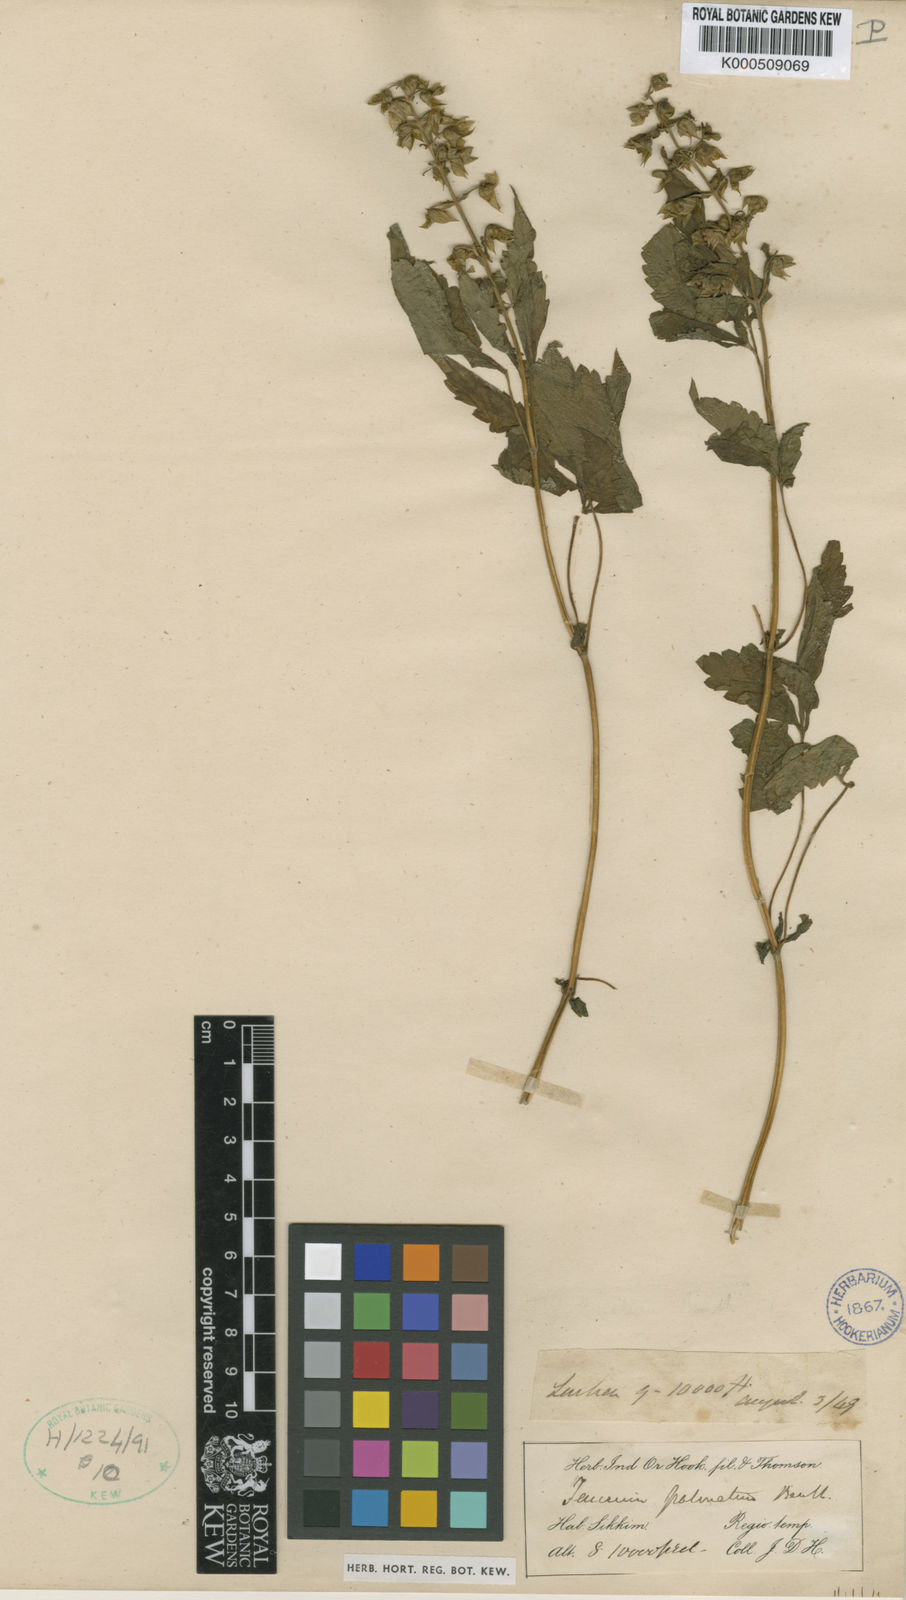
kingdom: Plantae
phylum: Tracheophyta
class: Magnoliopsida
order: Lamiales
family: Lamiaceae
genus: Rubiteucris
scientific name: Rubiteucris
